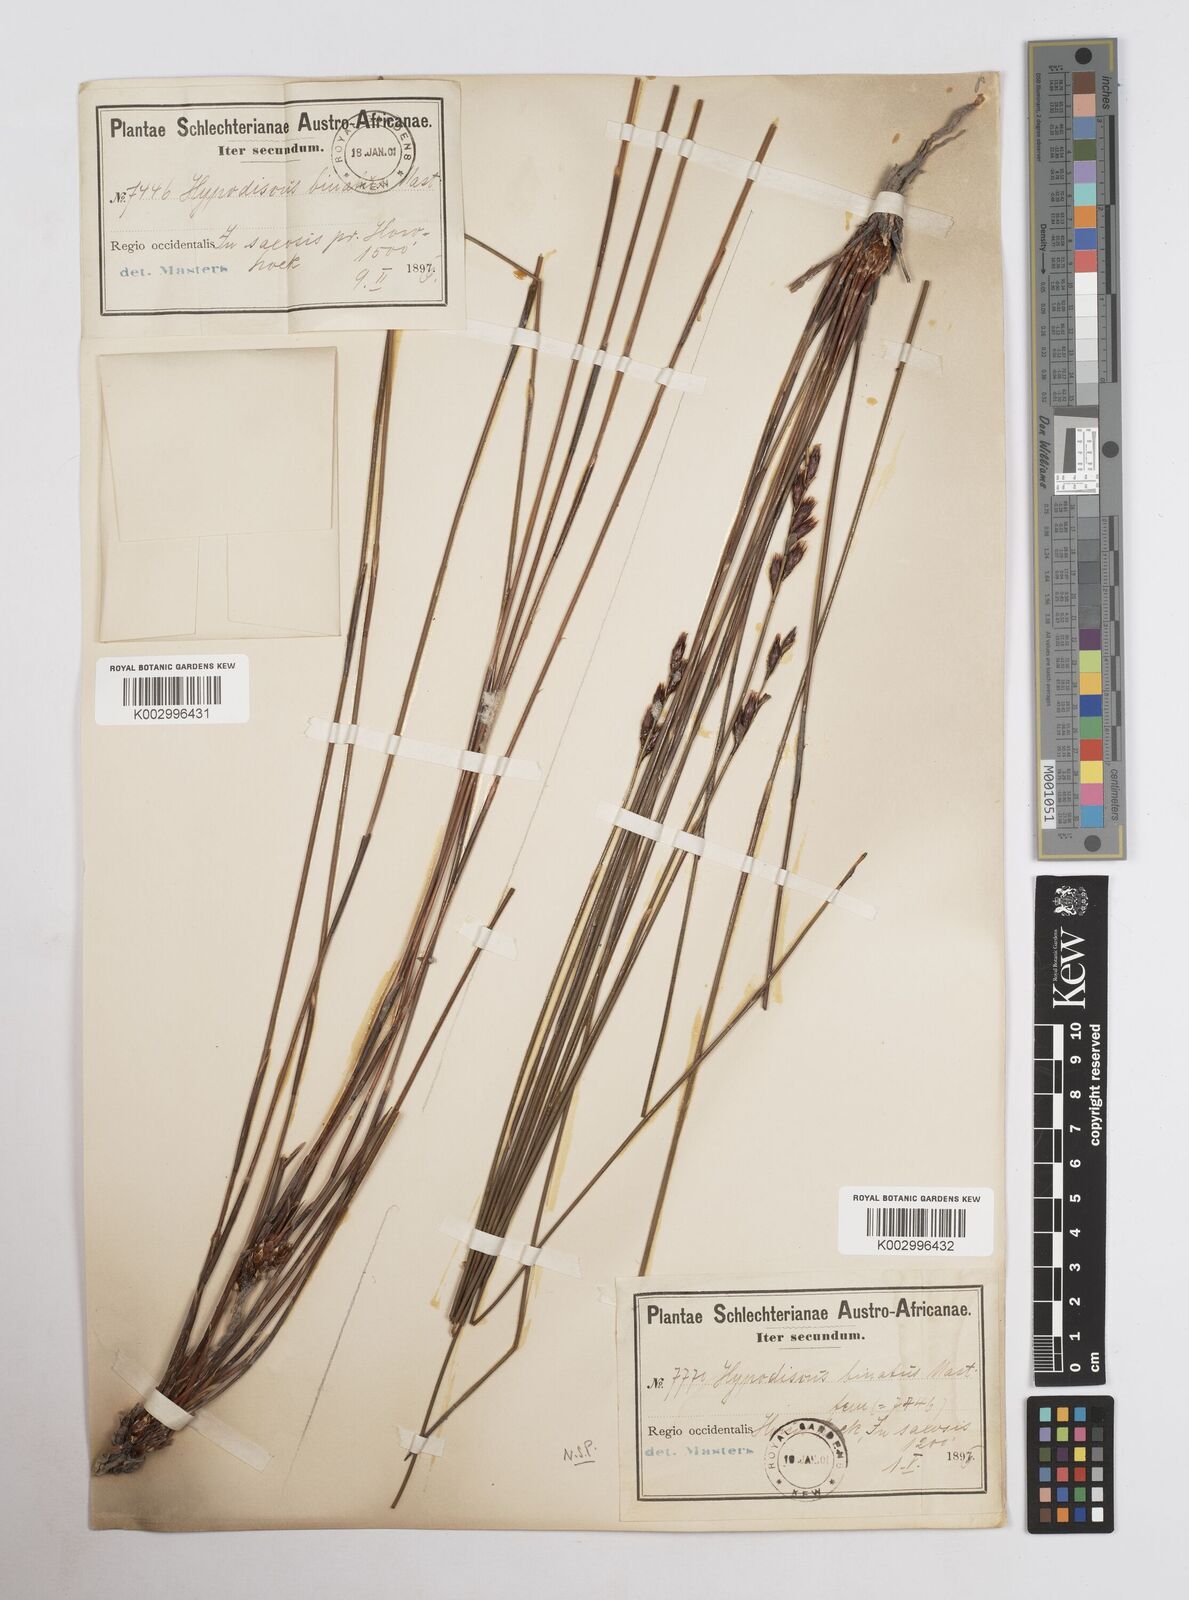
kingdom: Plantae
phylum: Tracheophyta
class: Liliopsida
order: Poales
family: Restionaceae
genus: Hypodiscus
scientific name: Hypodiscus laevigatus
